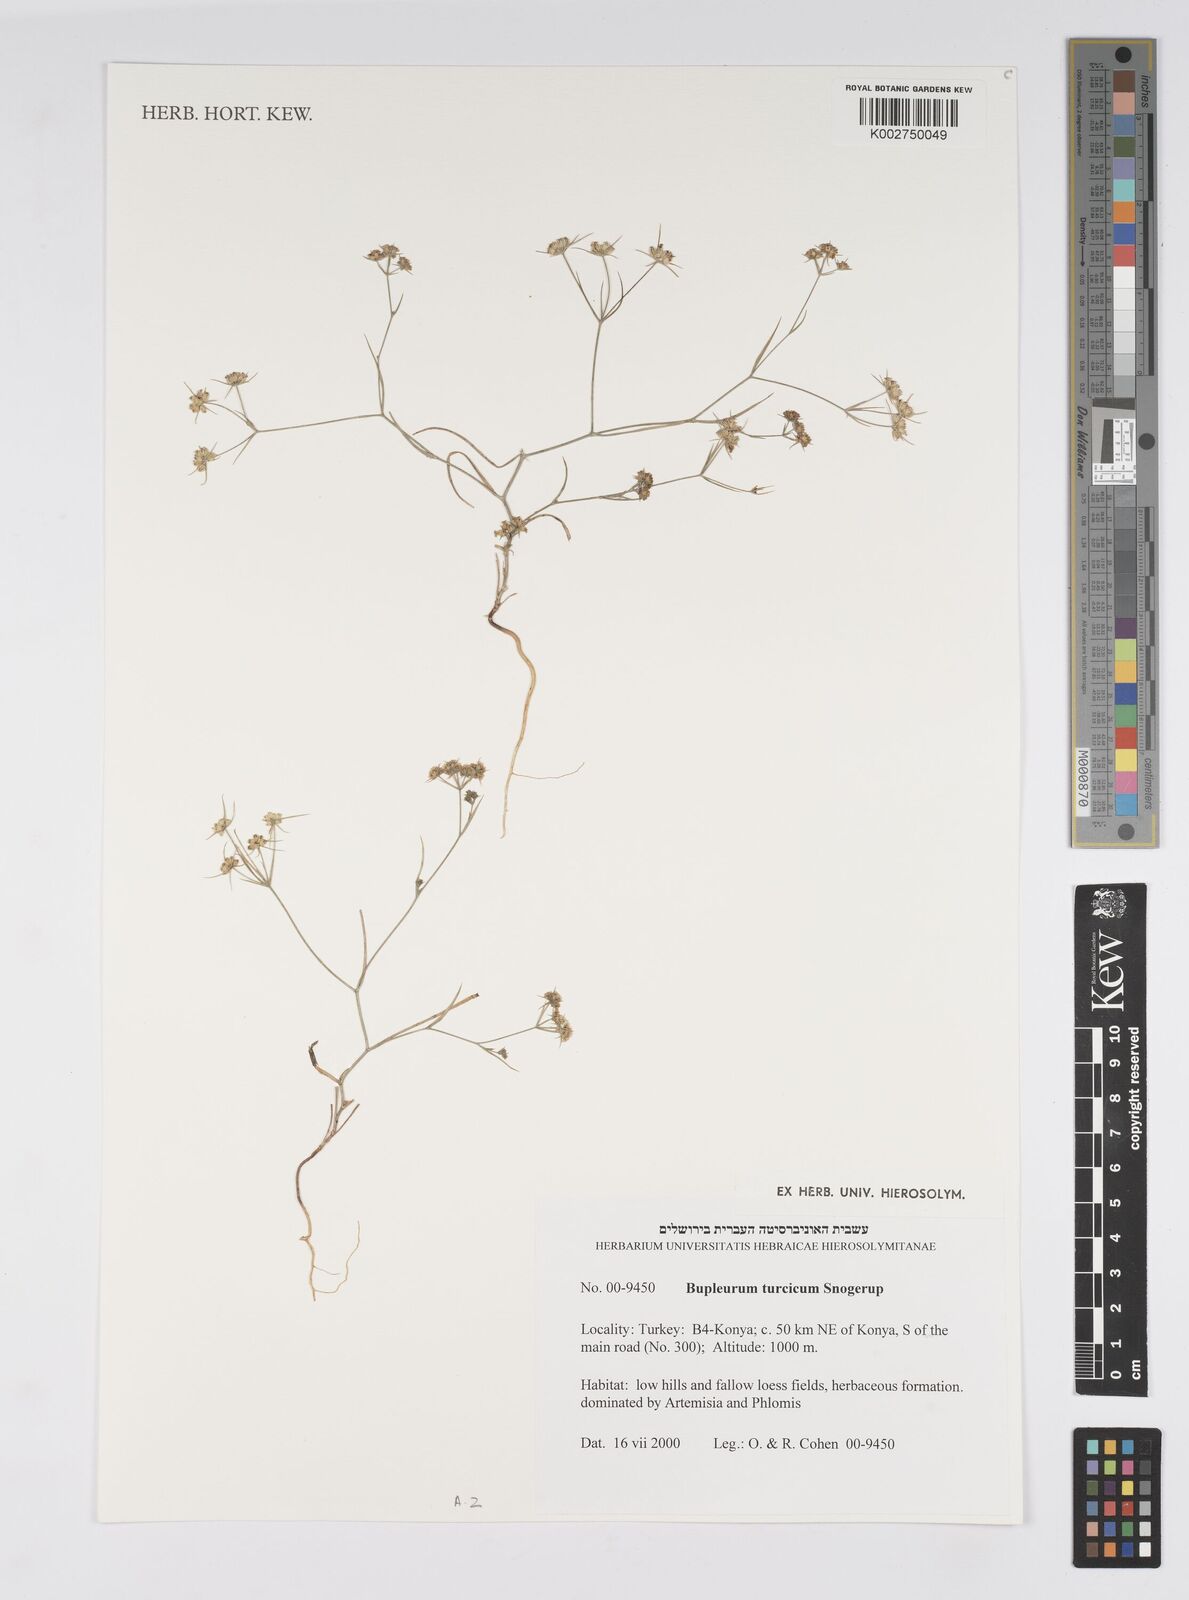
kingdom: Plantae
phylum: Tracheophyta
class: Magnoliopsida
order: Apiales
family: Apiaceae
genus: Bupleurum
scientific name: Bupleurum turcicum
